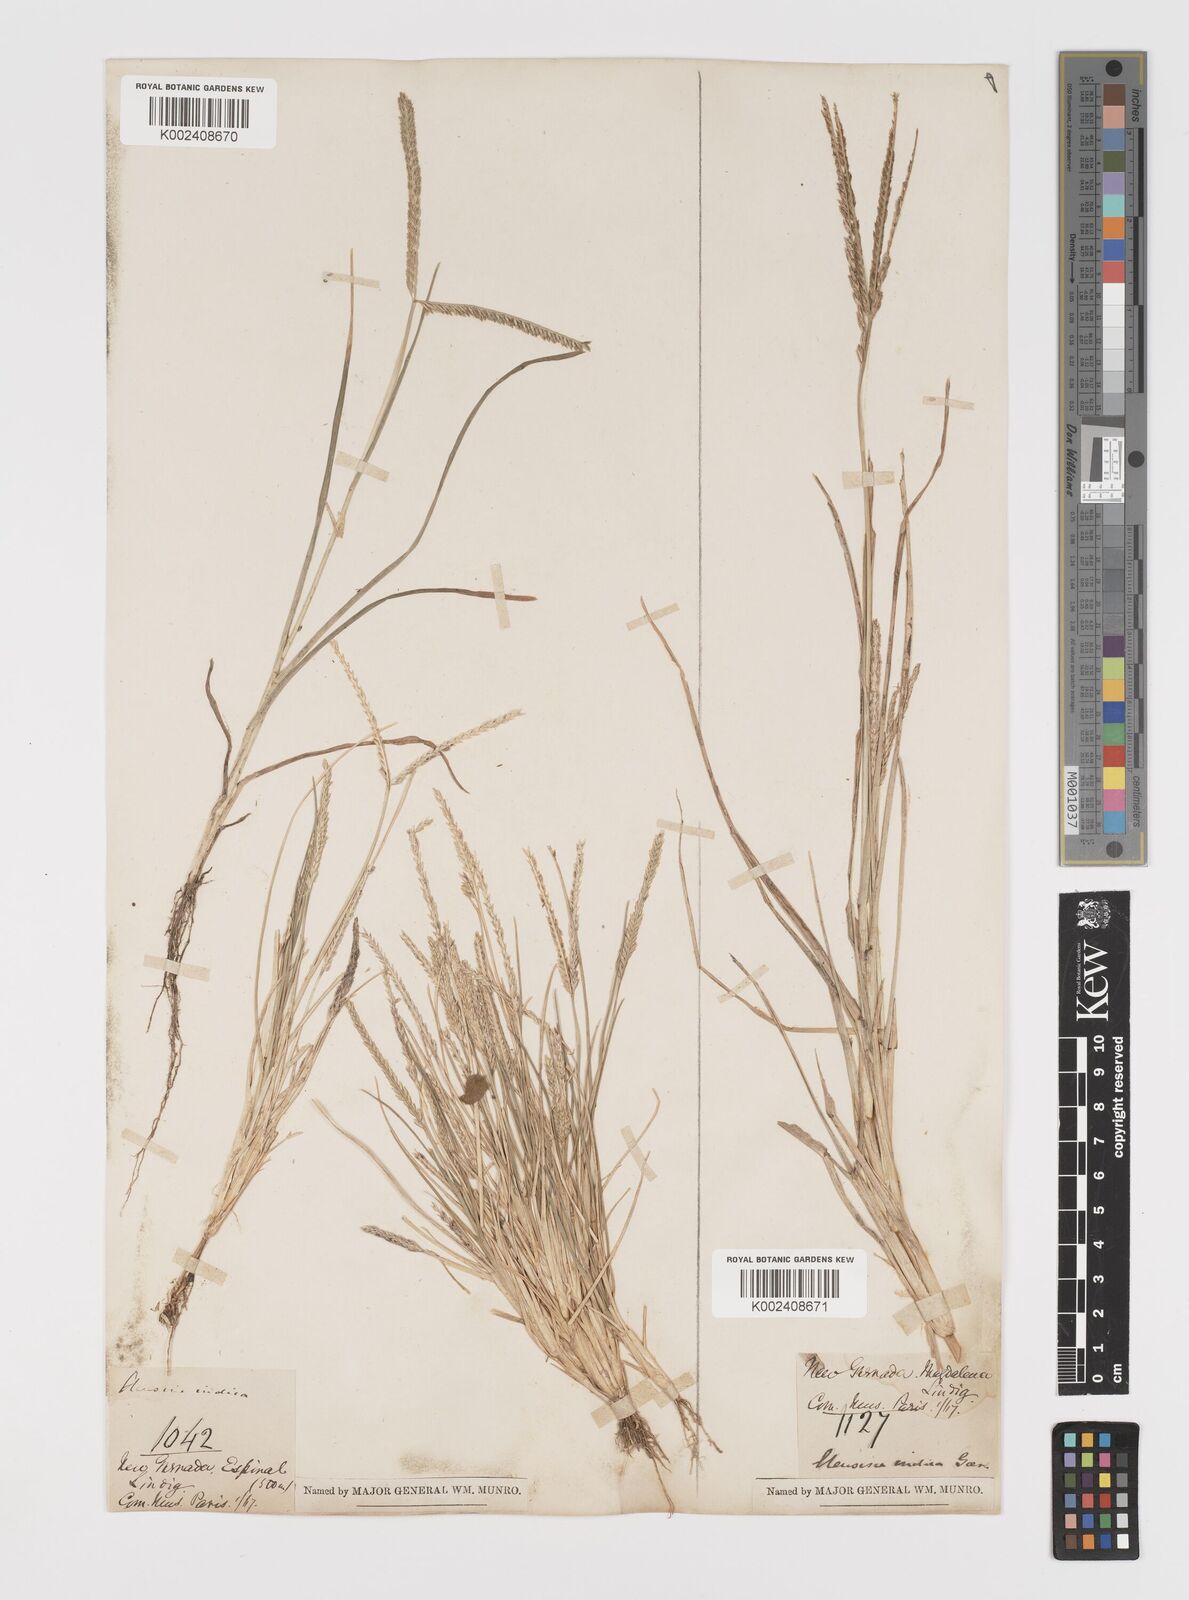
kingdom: Plantae
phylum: Tracheophyta
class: Liliopsida
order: Poales
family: Poaceae
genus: Eleusine
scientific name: Eleusine indica
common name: Yard-grass
